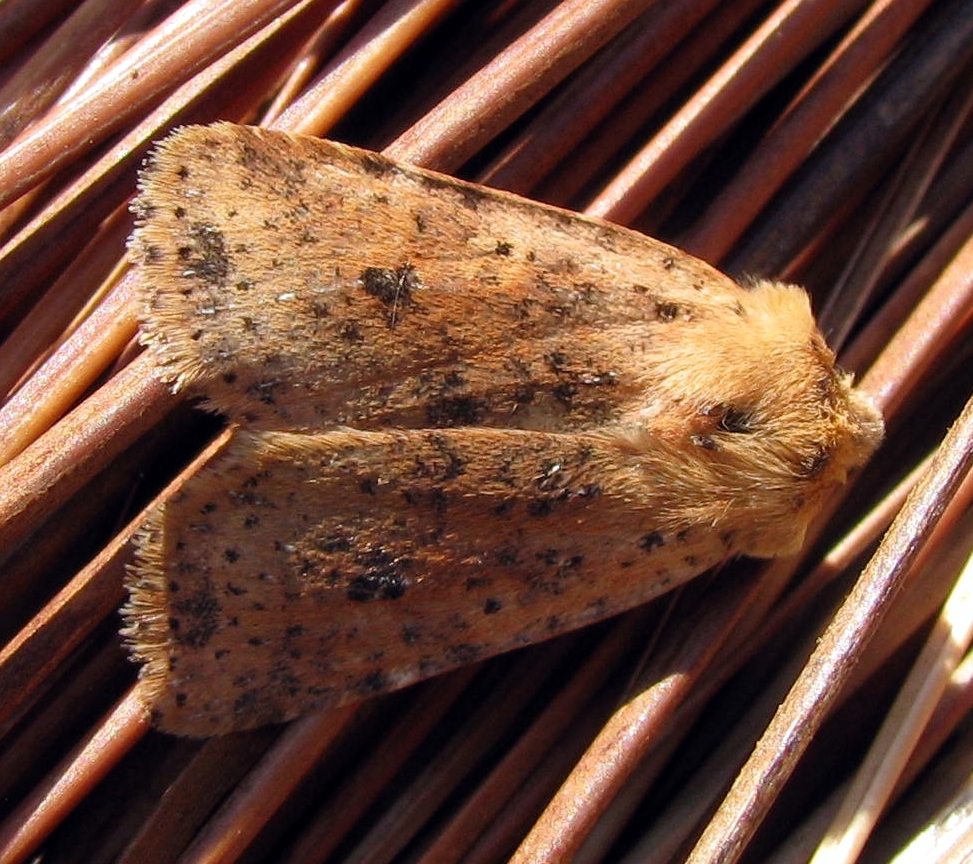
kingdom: Animalia
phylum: Arthropoda
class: Insecta
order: Lepidoptera
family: Noctuidae
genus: Conistra
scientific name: Conistra rubiginea
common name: Dotted chestnut
